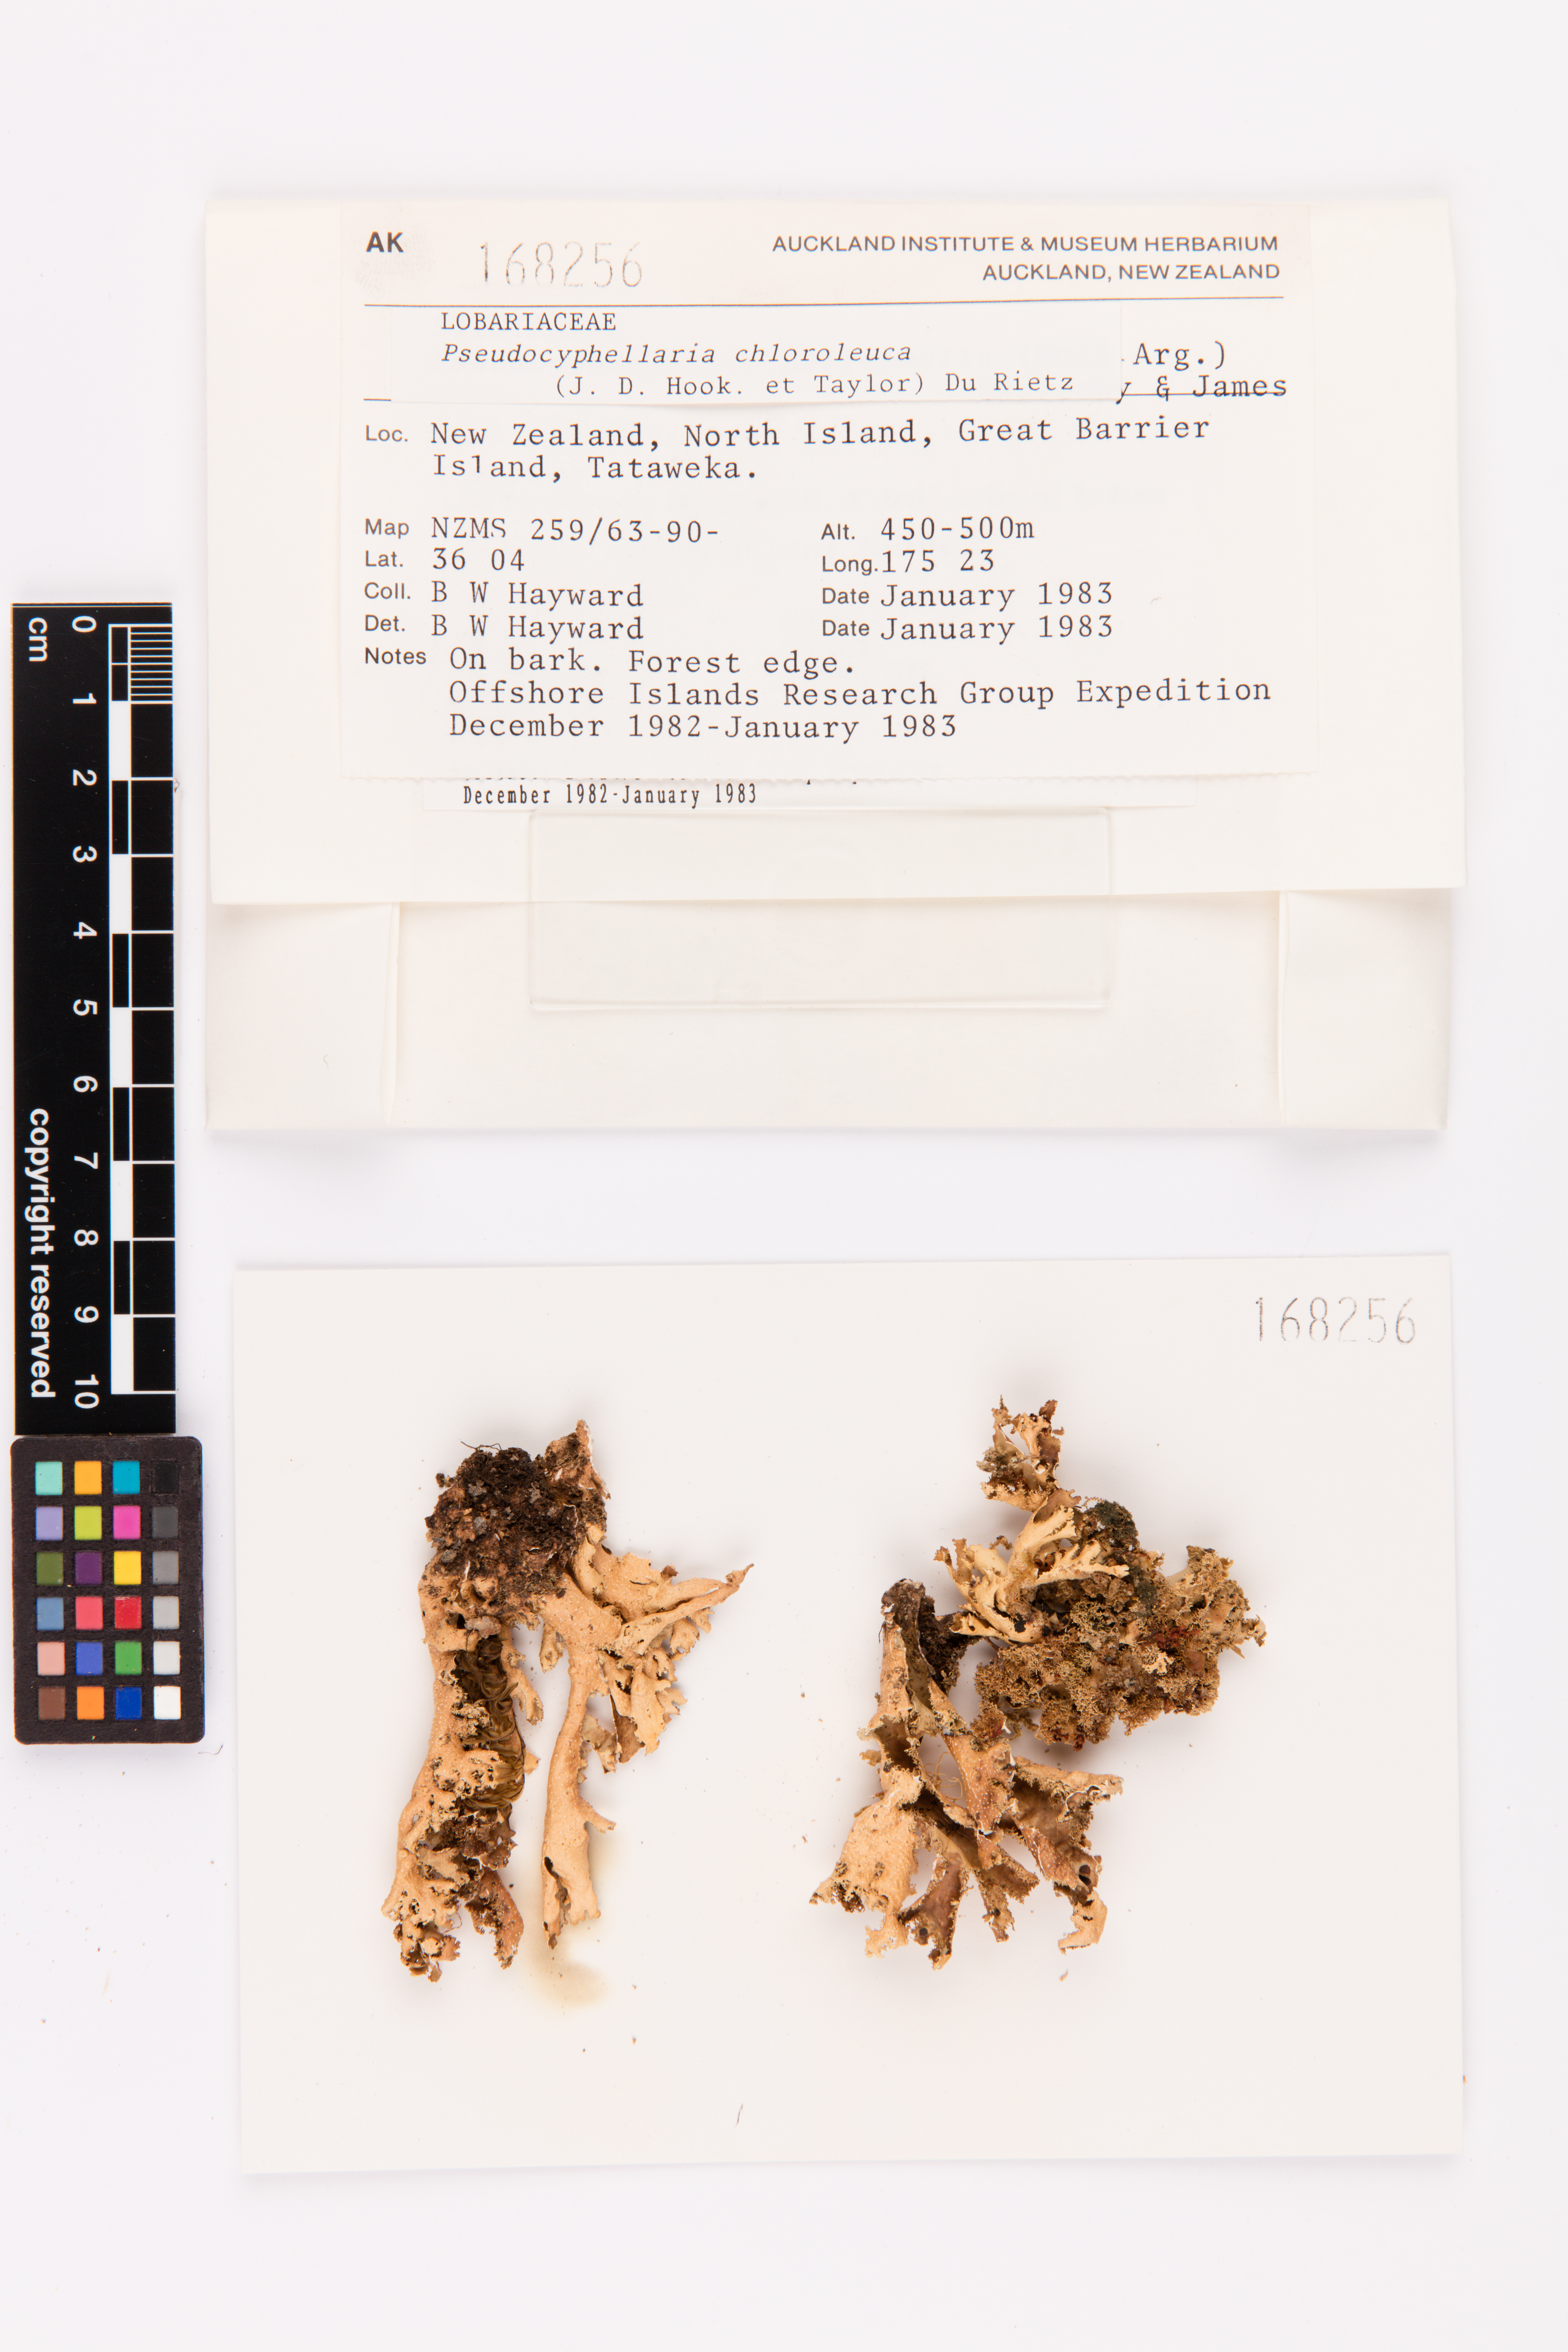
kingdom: Fungi
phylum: Ascomycota
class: Lecanoromycetes
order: Peltigerales
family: Lobariaceae
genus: Pseudocyphellaria
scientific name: Pseudocyphellaria chloroleuca
